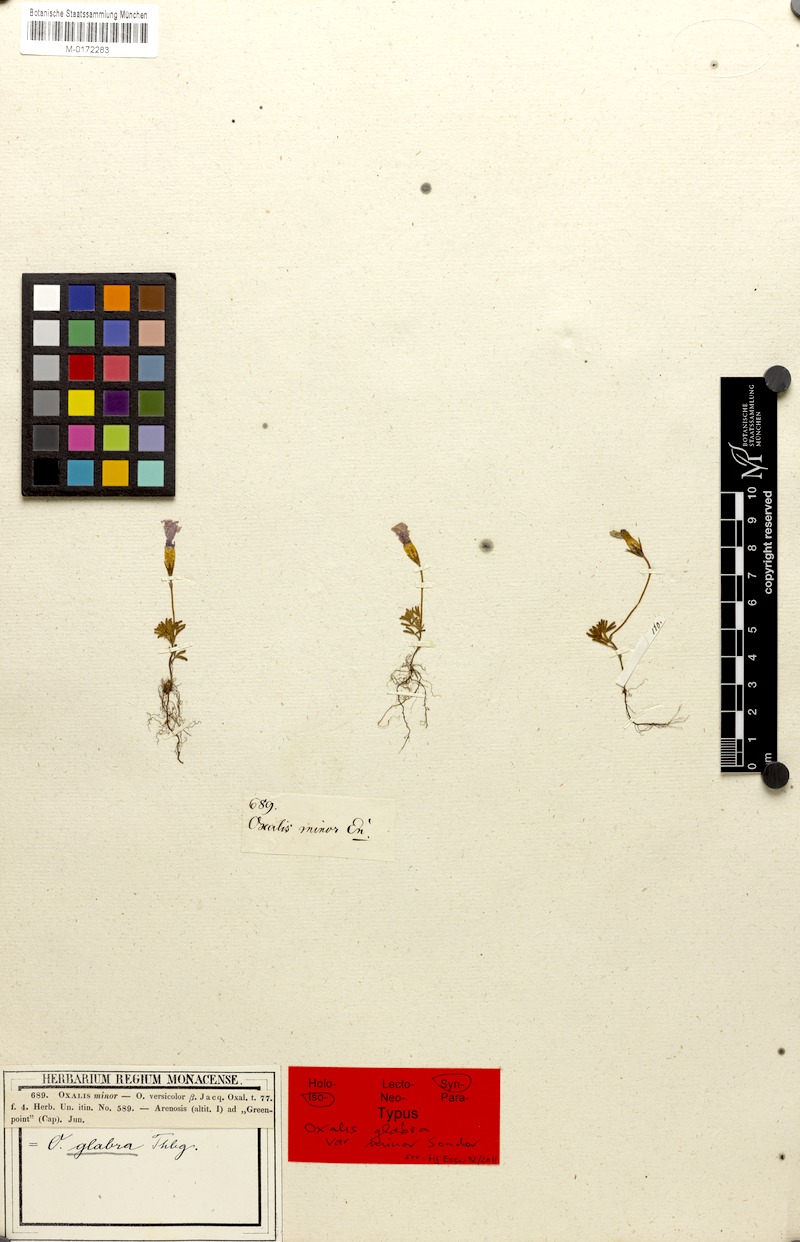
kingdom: Plantae
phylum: Tracheophyta
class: Magnoliopsida
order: Oxalidales
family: Oxalidaceae
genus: Oxalis
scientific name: Oxalis glabra
